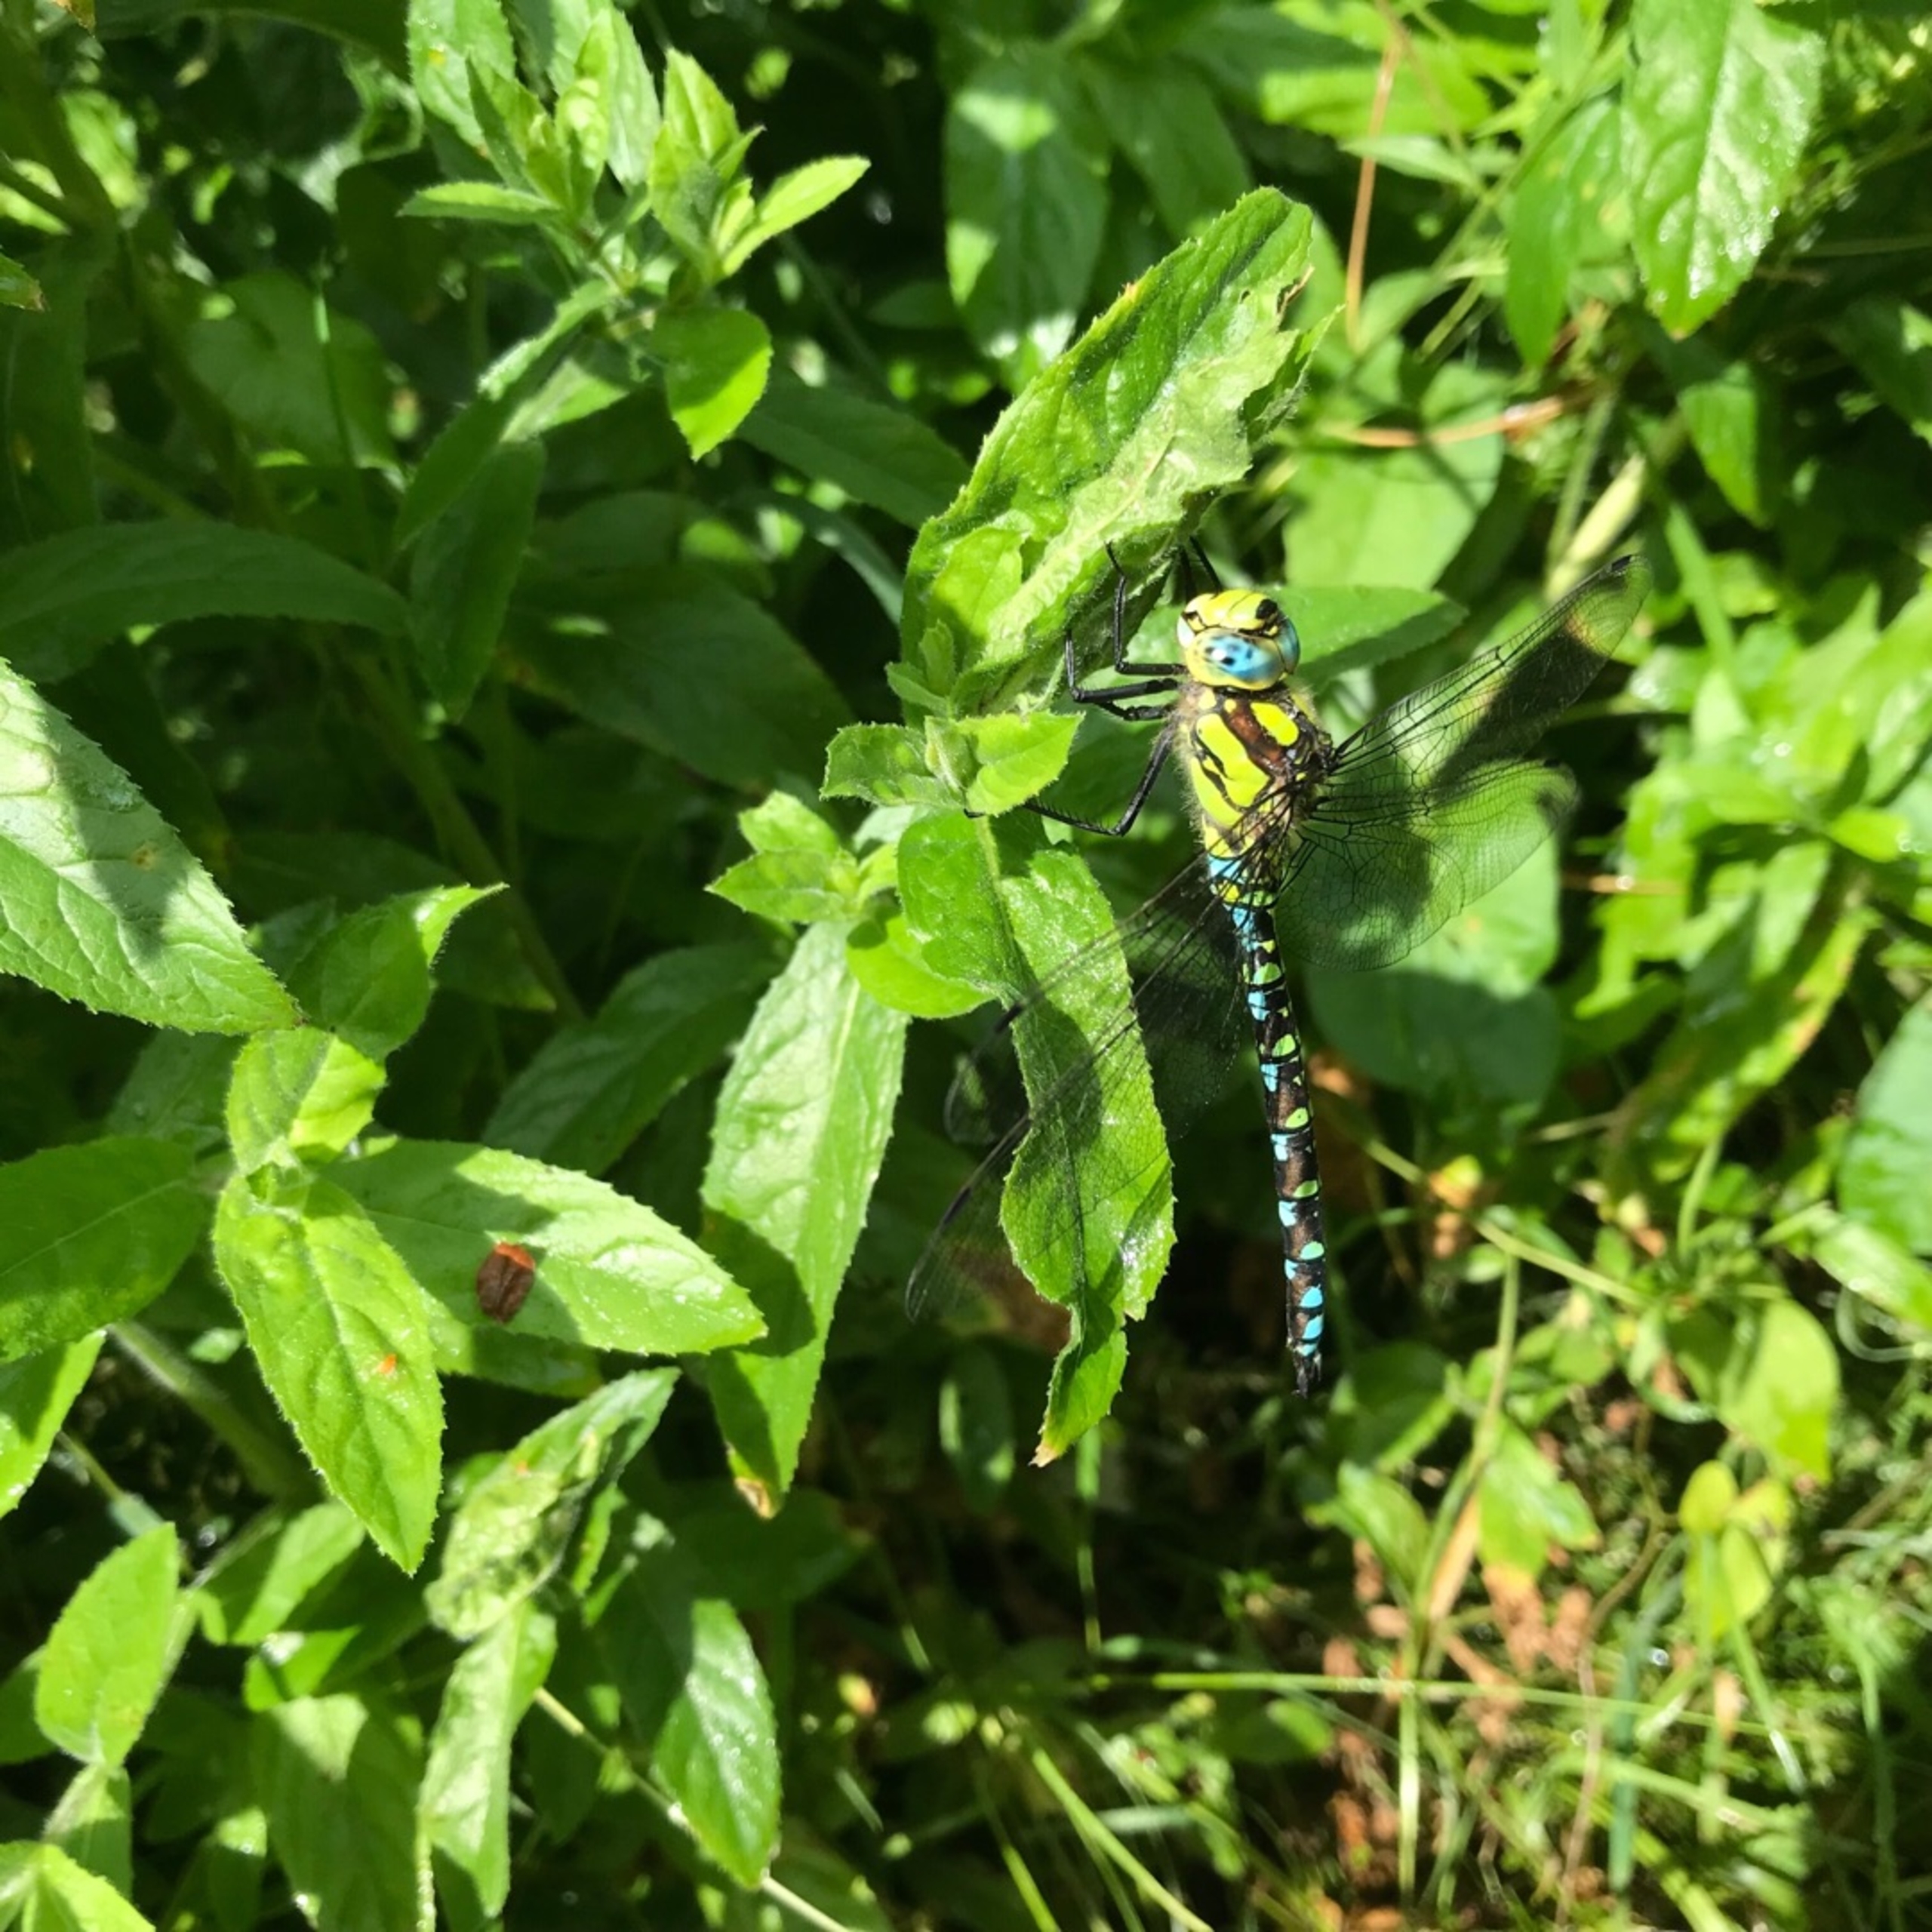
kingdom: Animalia
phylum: Arthropoda
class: Insecta
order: Odonata
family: Aeshnidae
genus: Aeshna
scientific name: Aeshna cyanea
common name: Blå mosaikguldsmed
